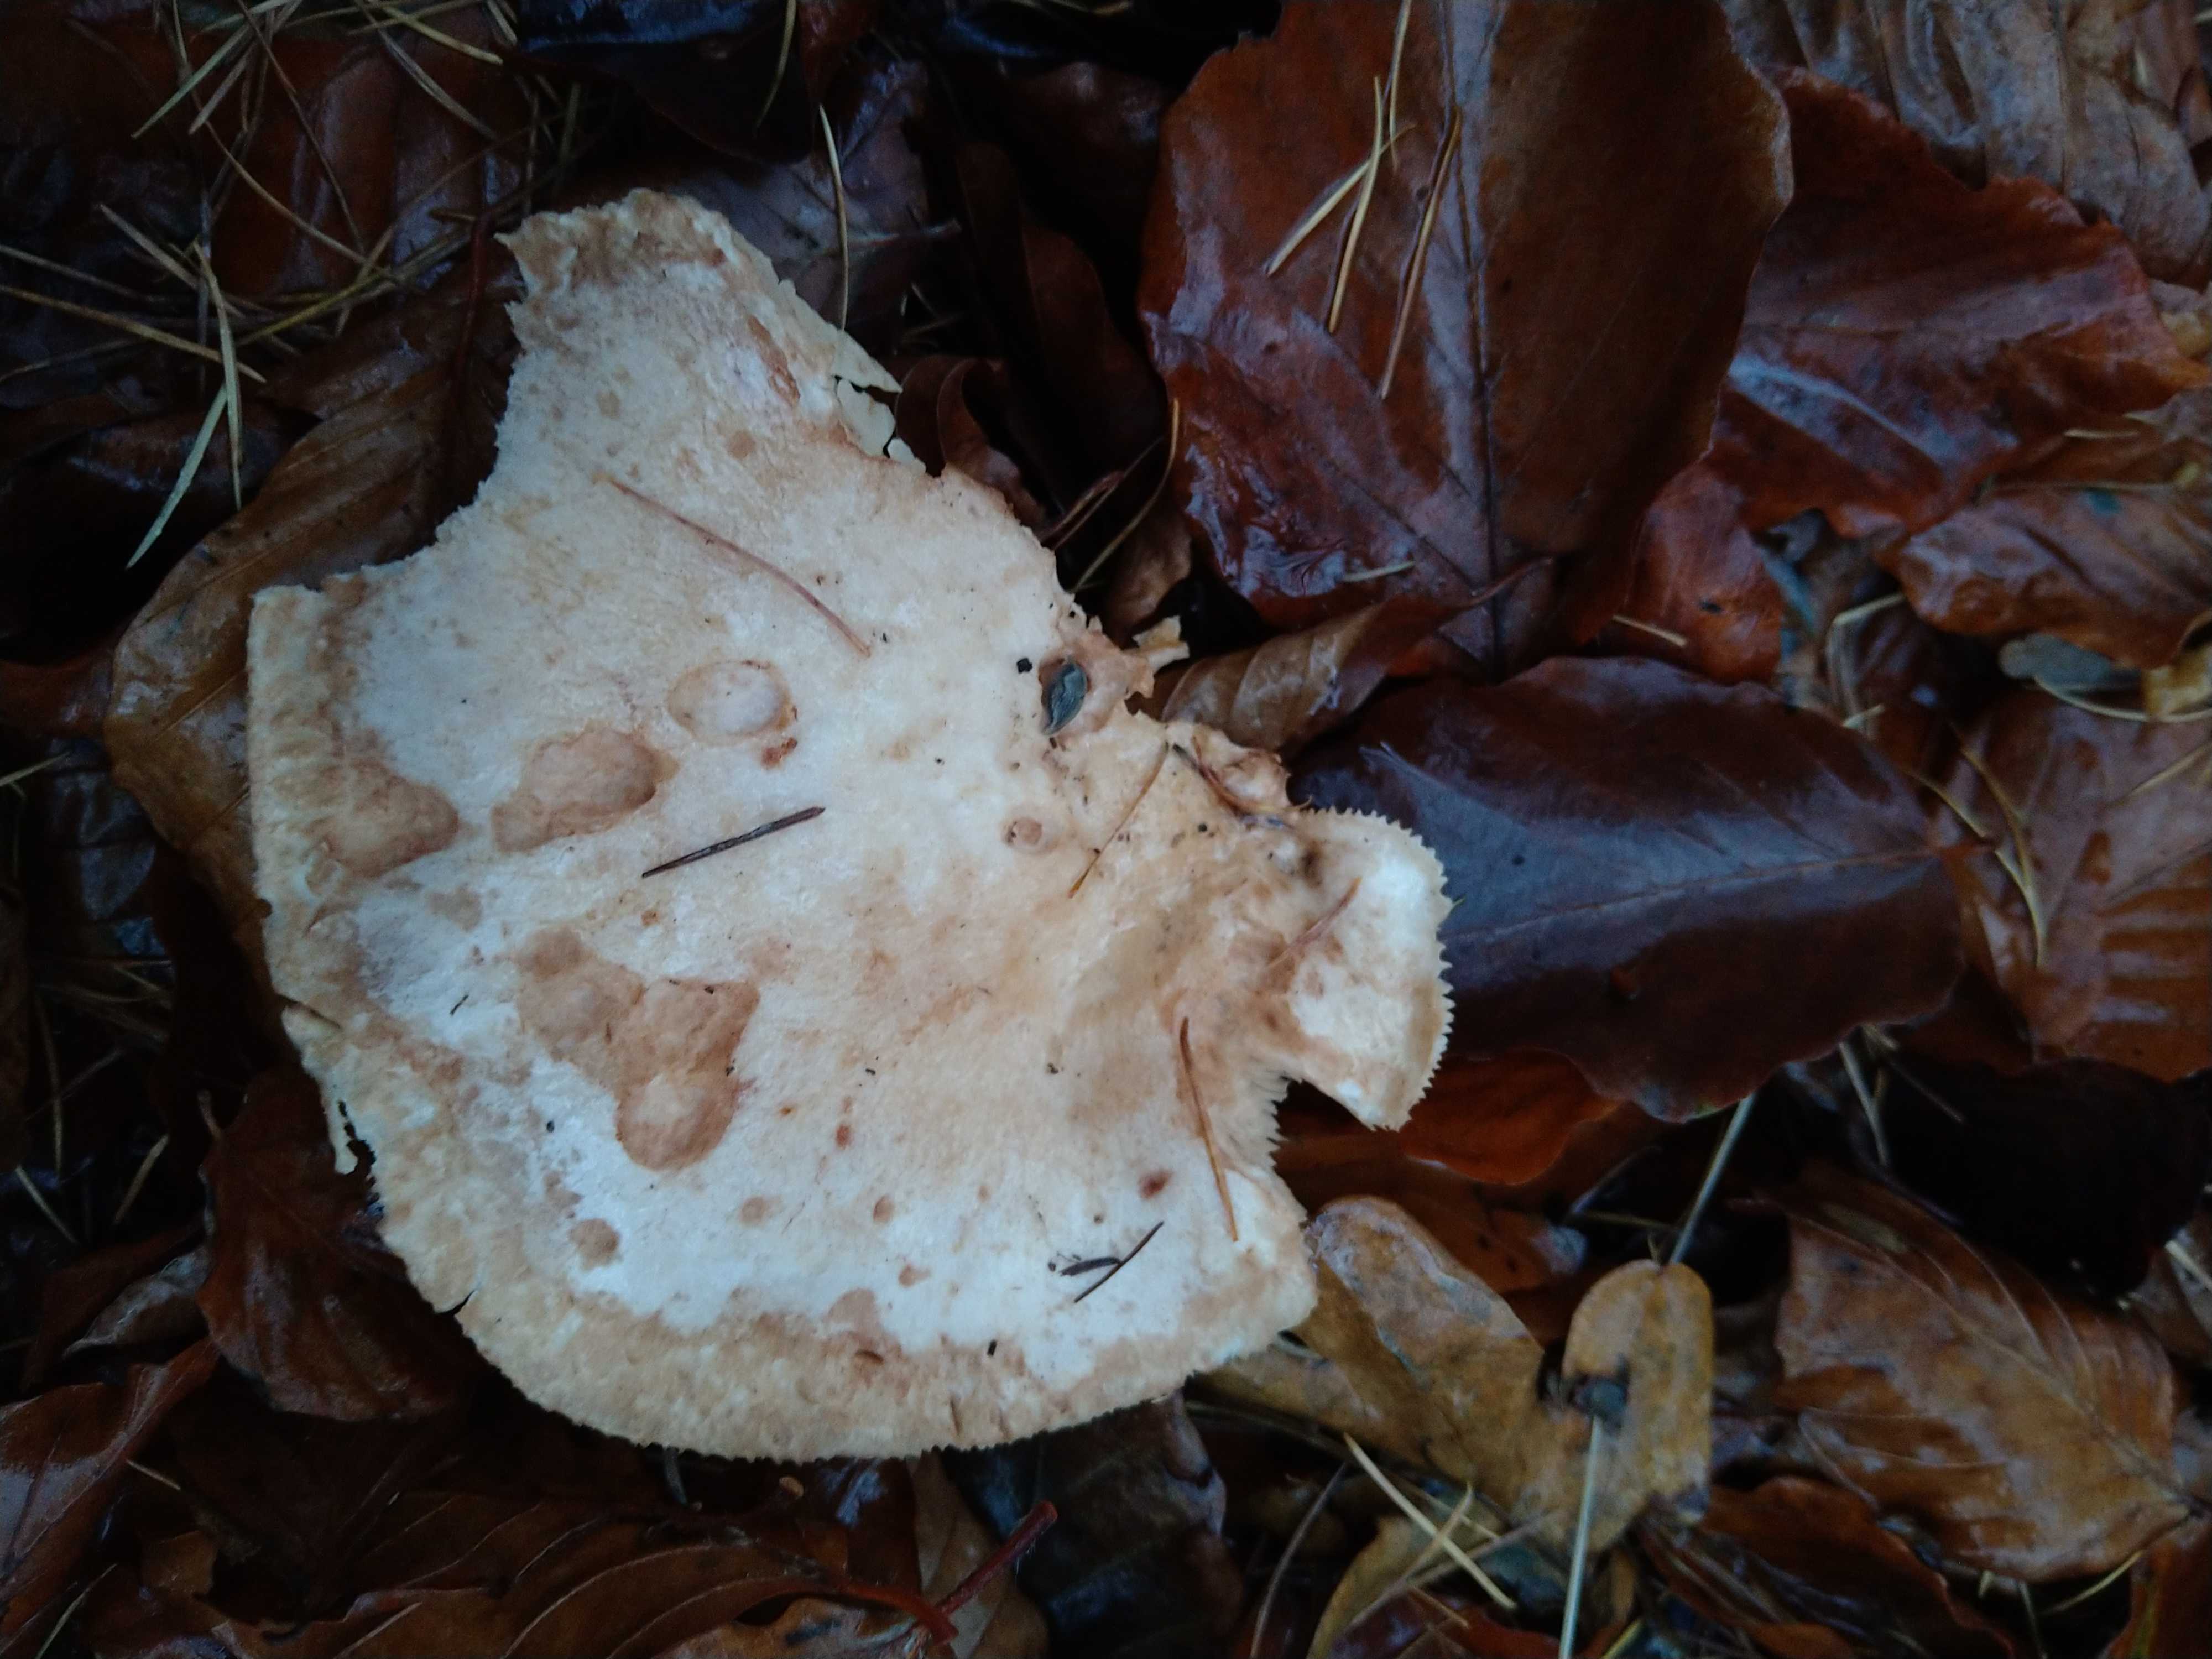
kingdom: Fungi
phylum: Basidiomycota
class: Agaricomycetes
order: Russulales
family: Russulaceae
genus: Lactarius
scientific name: Lactarius pallidus
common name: bleg mælkehat
